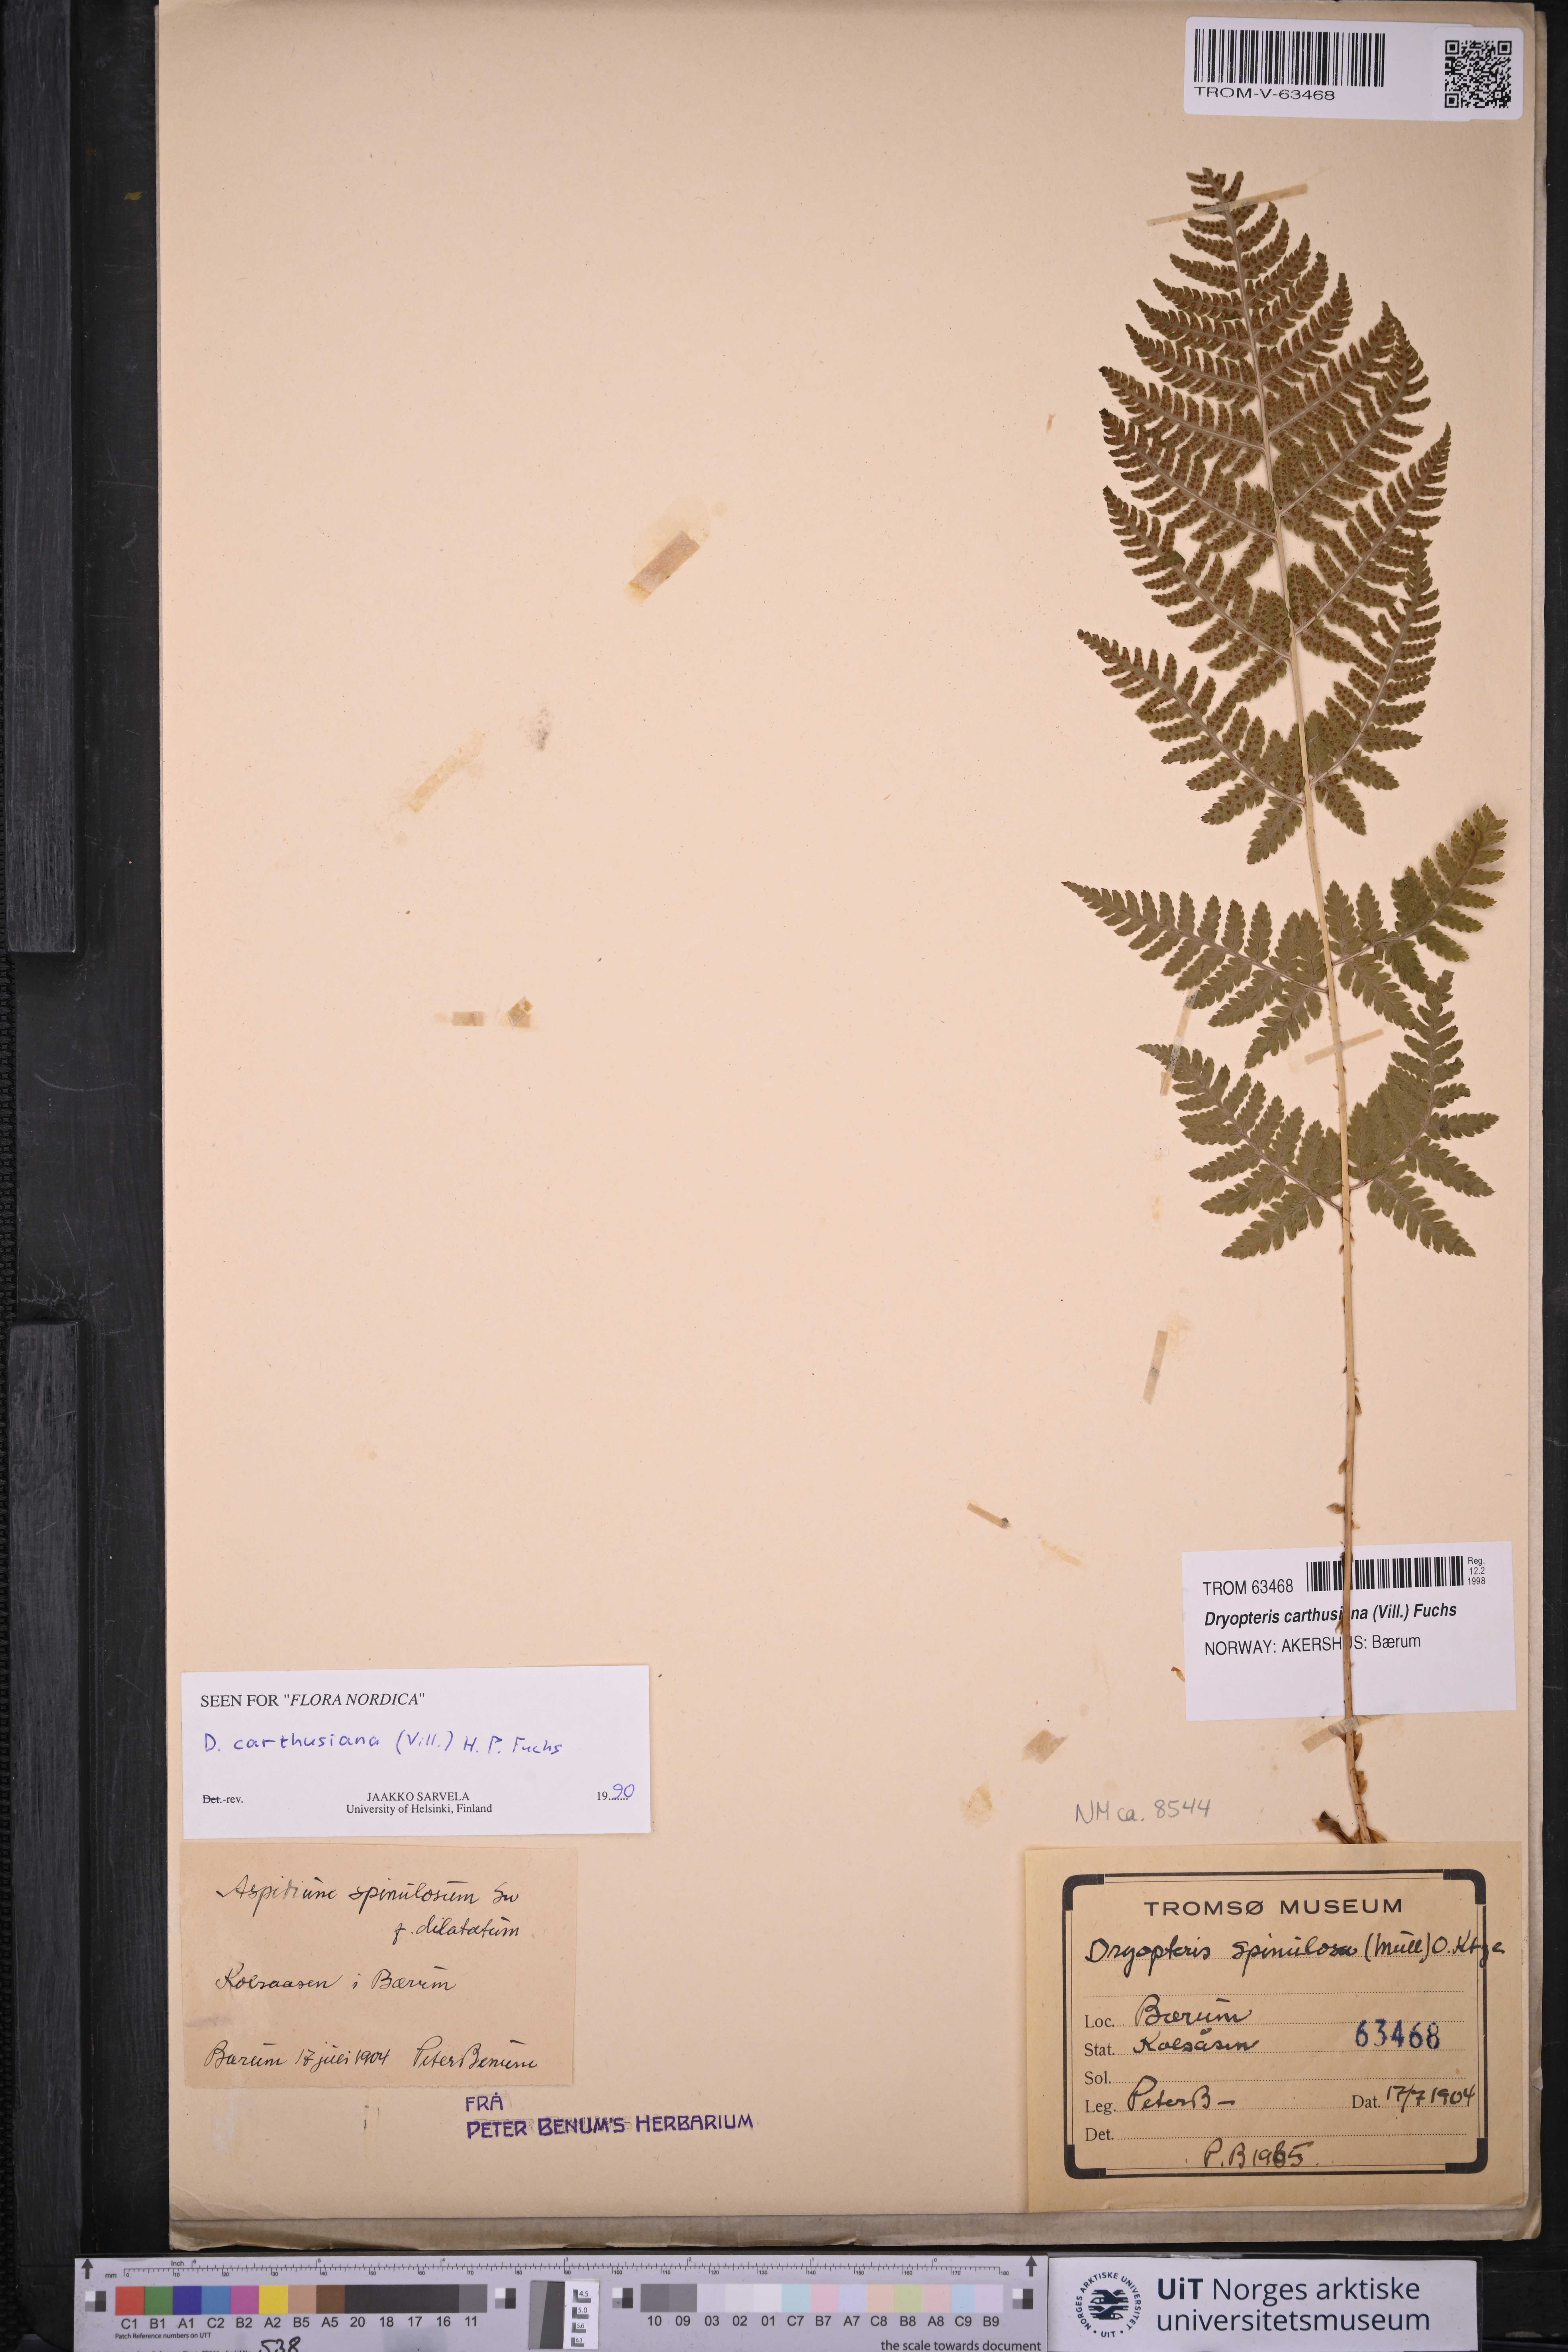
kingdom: Plantae
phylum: Tracheophyta
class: Polypodiopsida
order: Polypodiales
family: Dryopteridaceae
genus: Dryopteris
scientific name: Dryopteris carthusiana
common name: Narrow buckler-fern
